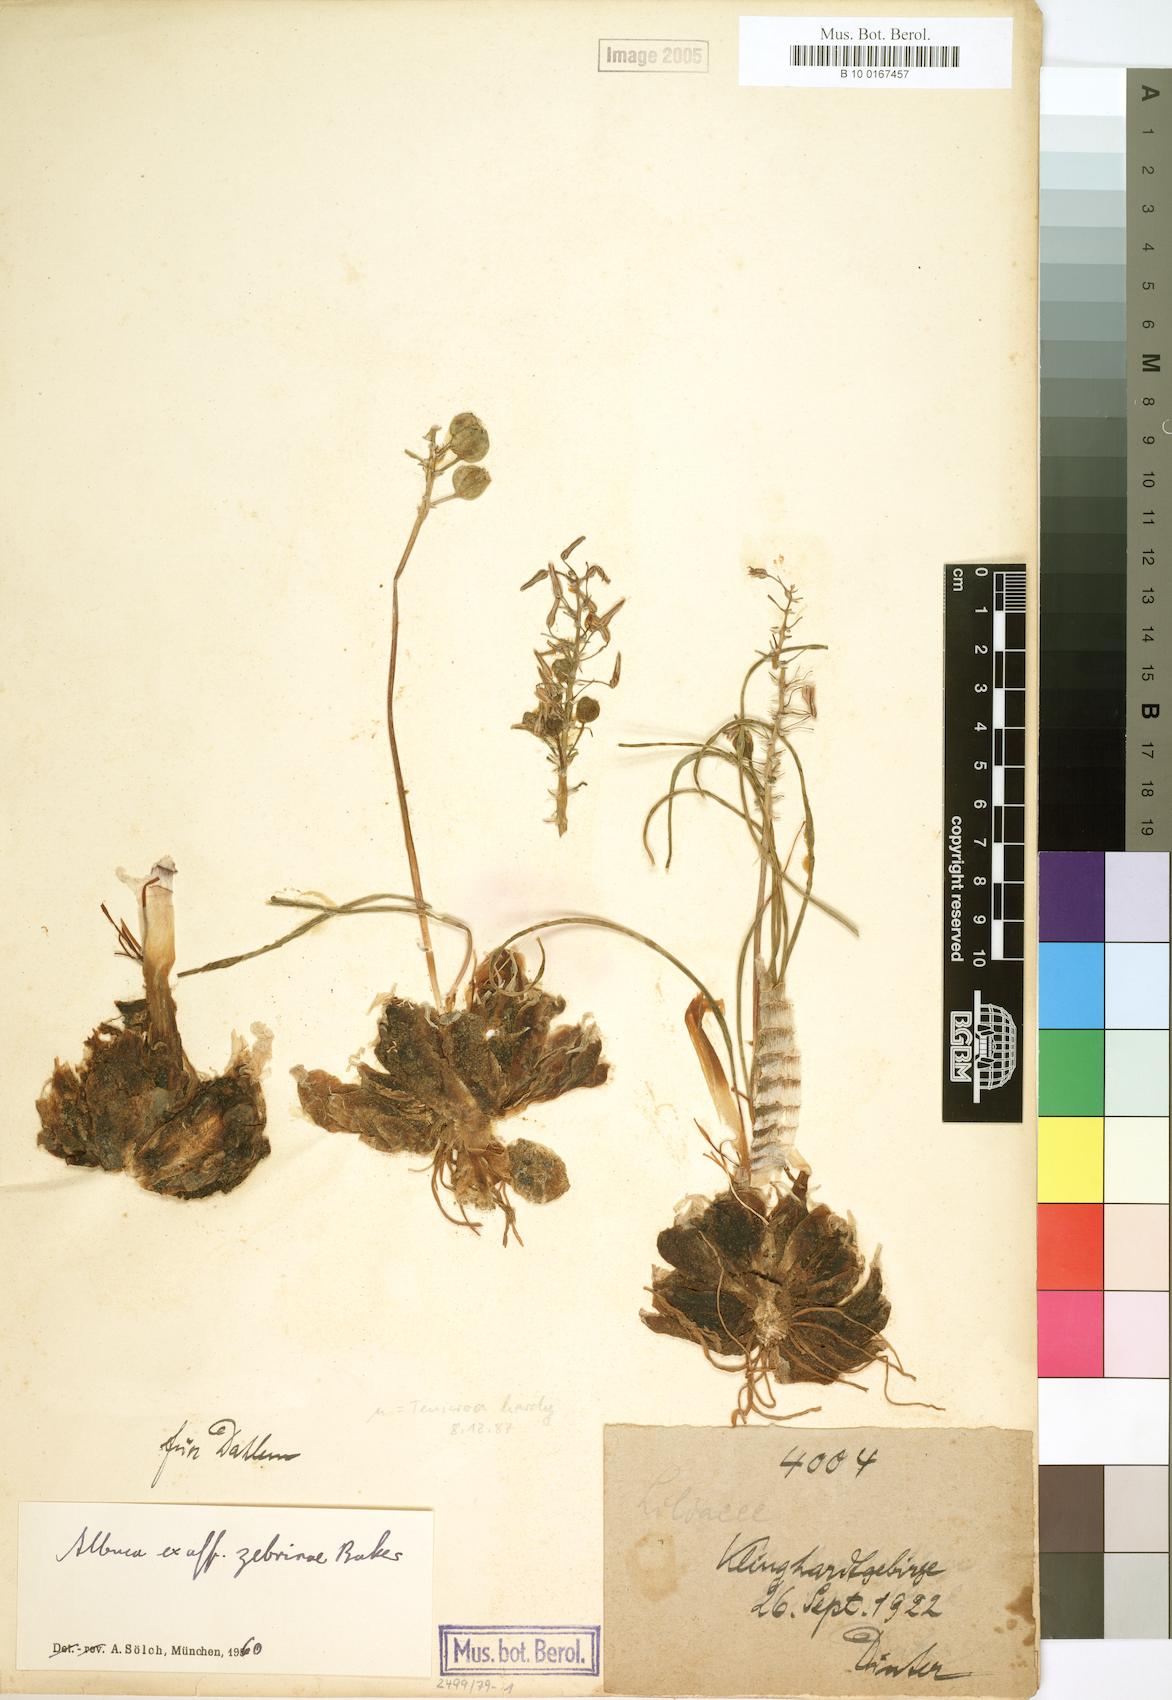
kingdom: Plantae
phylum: Tracheophyta
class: Liliopsida
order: Asparagales
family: Asparagaceae
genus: Albuca
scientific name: Albuca zebrina
